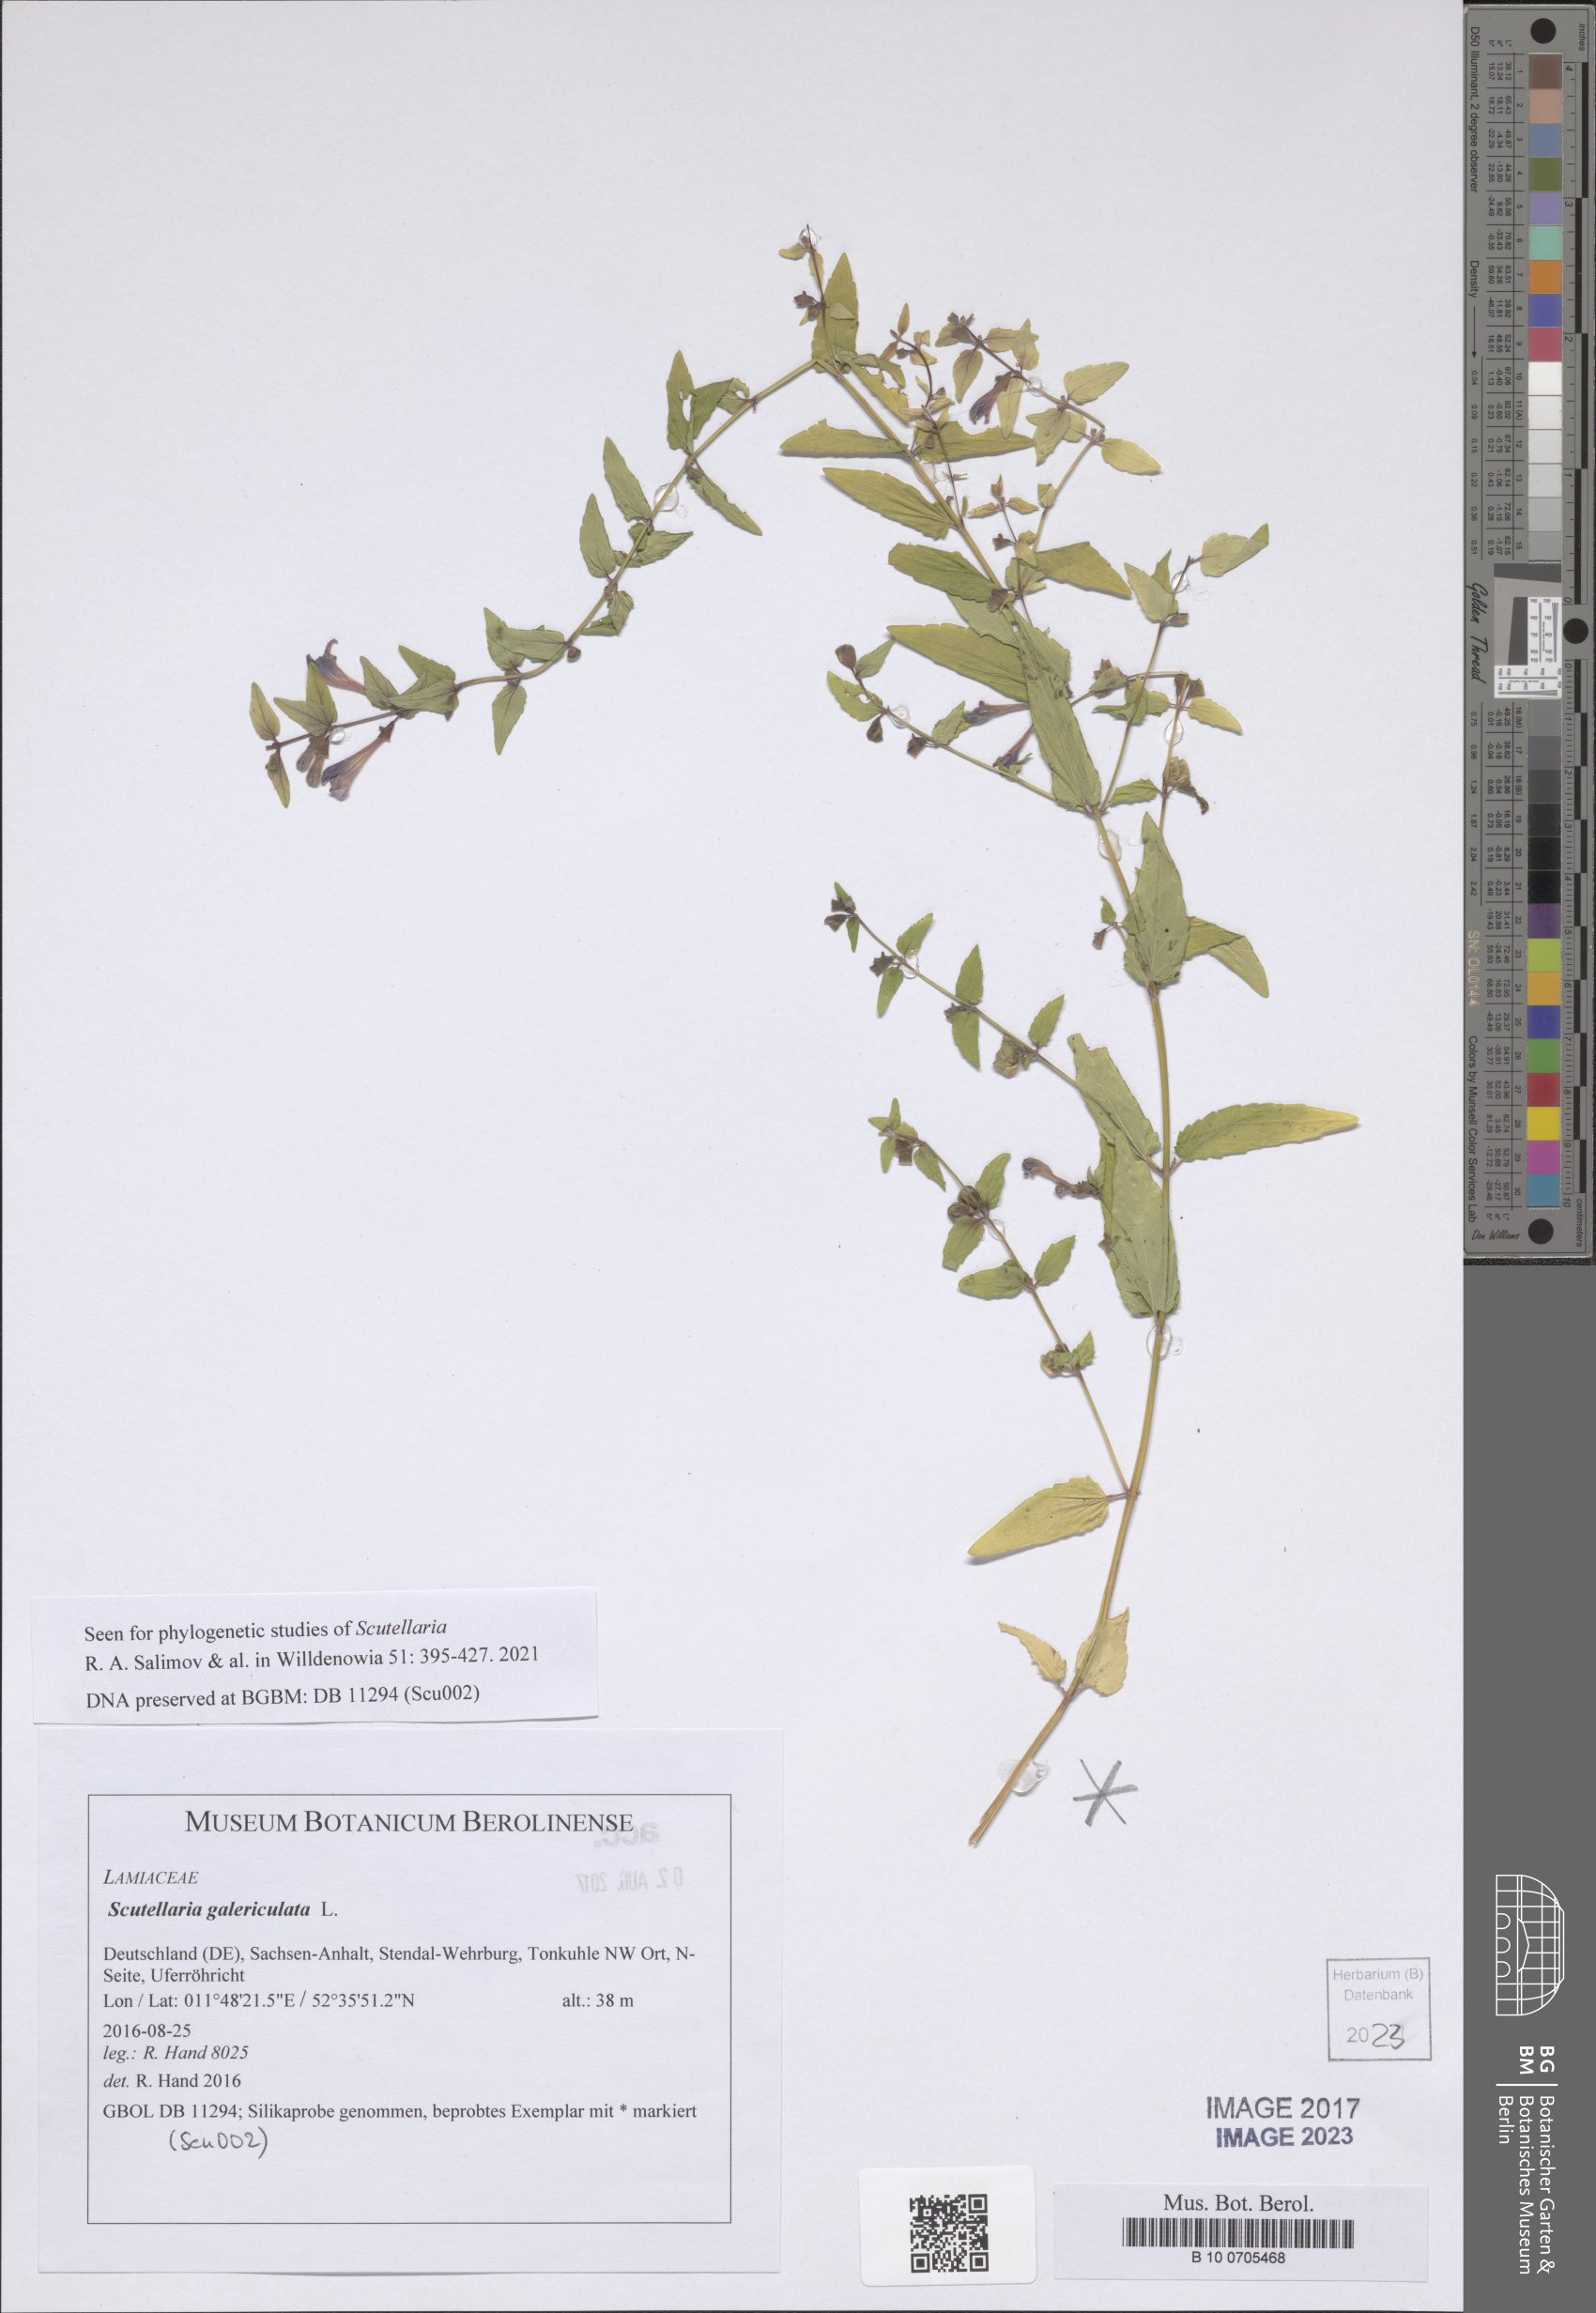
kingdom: Plantae
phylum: Tracheophyta
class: Magnoliopsida
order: Lamiales
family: Lamiaceae
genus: Scutellaria
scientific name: Scutellaria galericulata
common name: Skullcap
